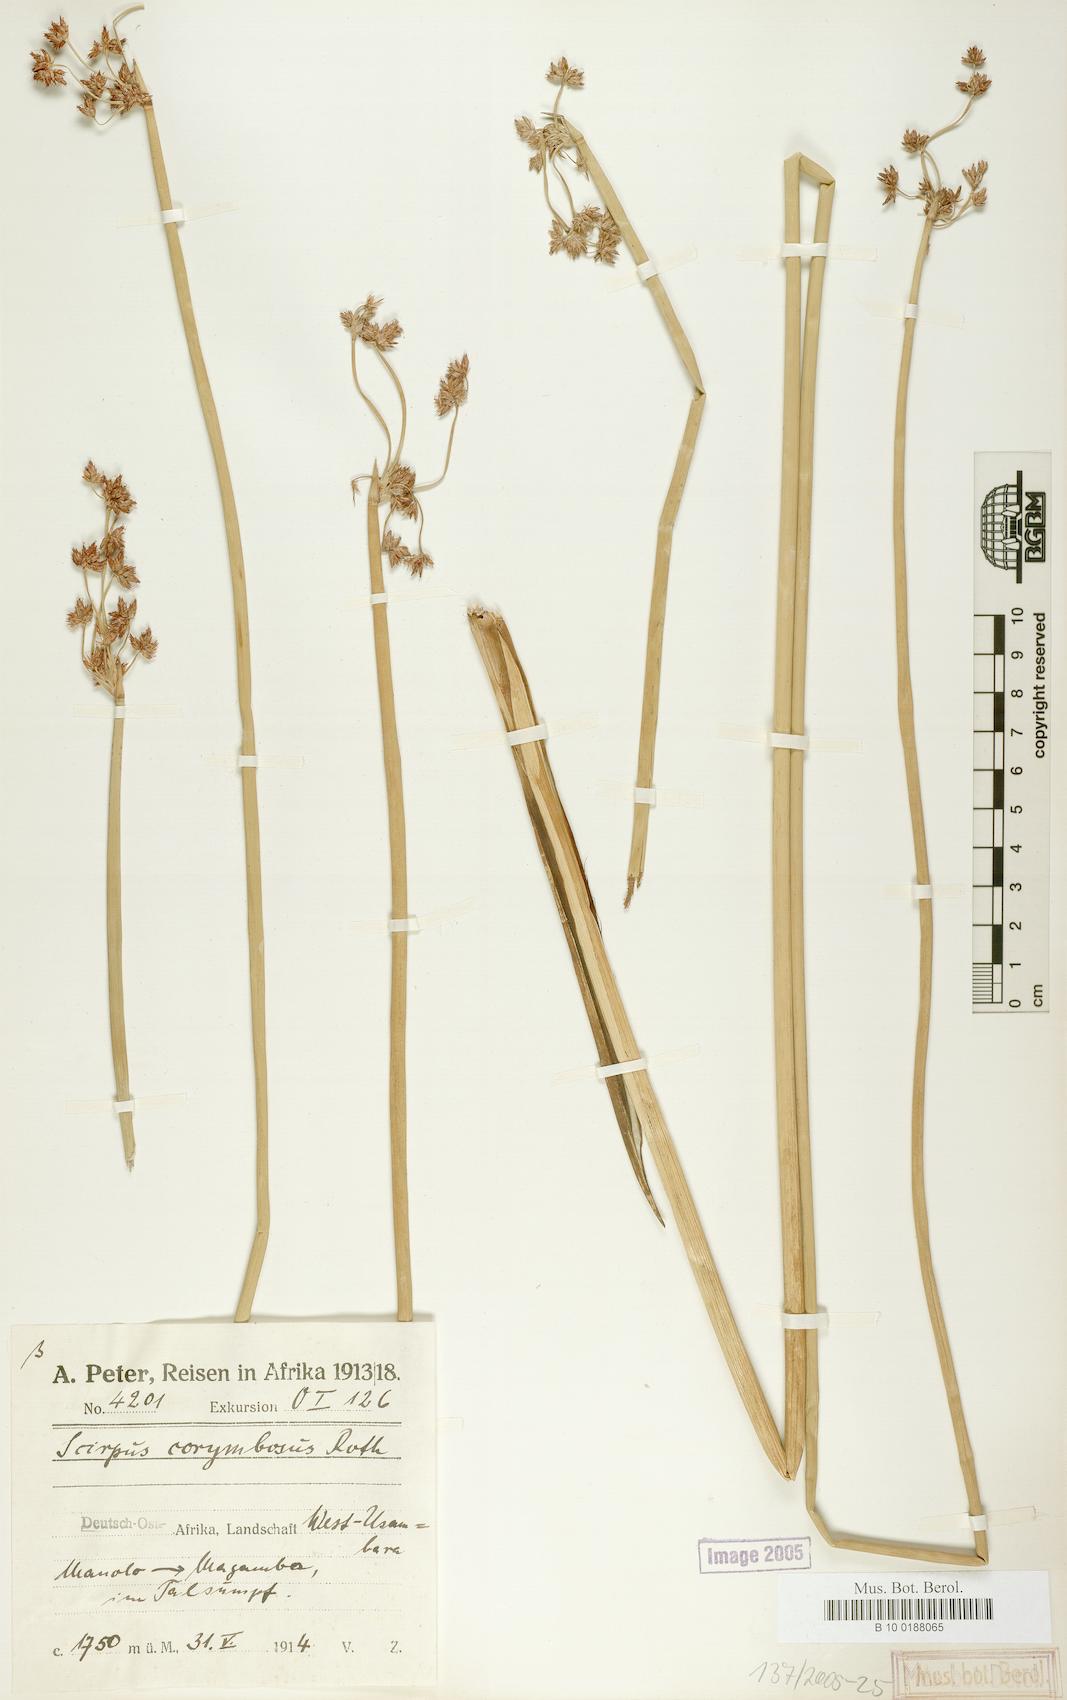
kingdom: Plantae
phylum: Tracheophyta
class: Liliopsida
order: Poales
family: Cyperaceae
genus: Schoenoplectiella
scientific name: Schoenoplectiella brachyceras
